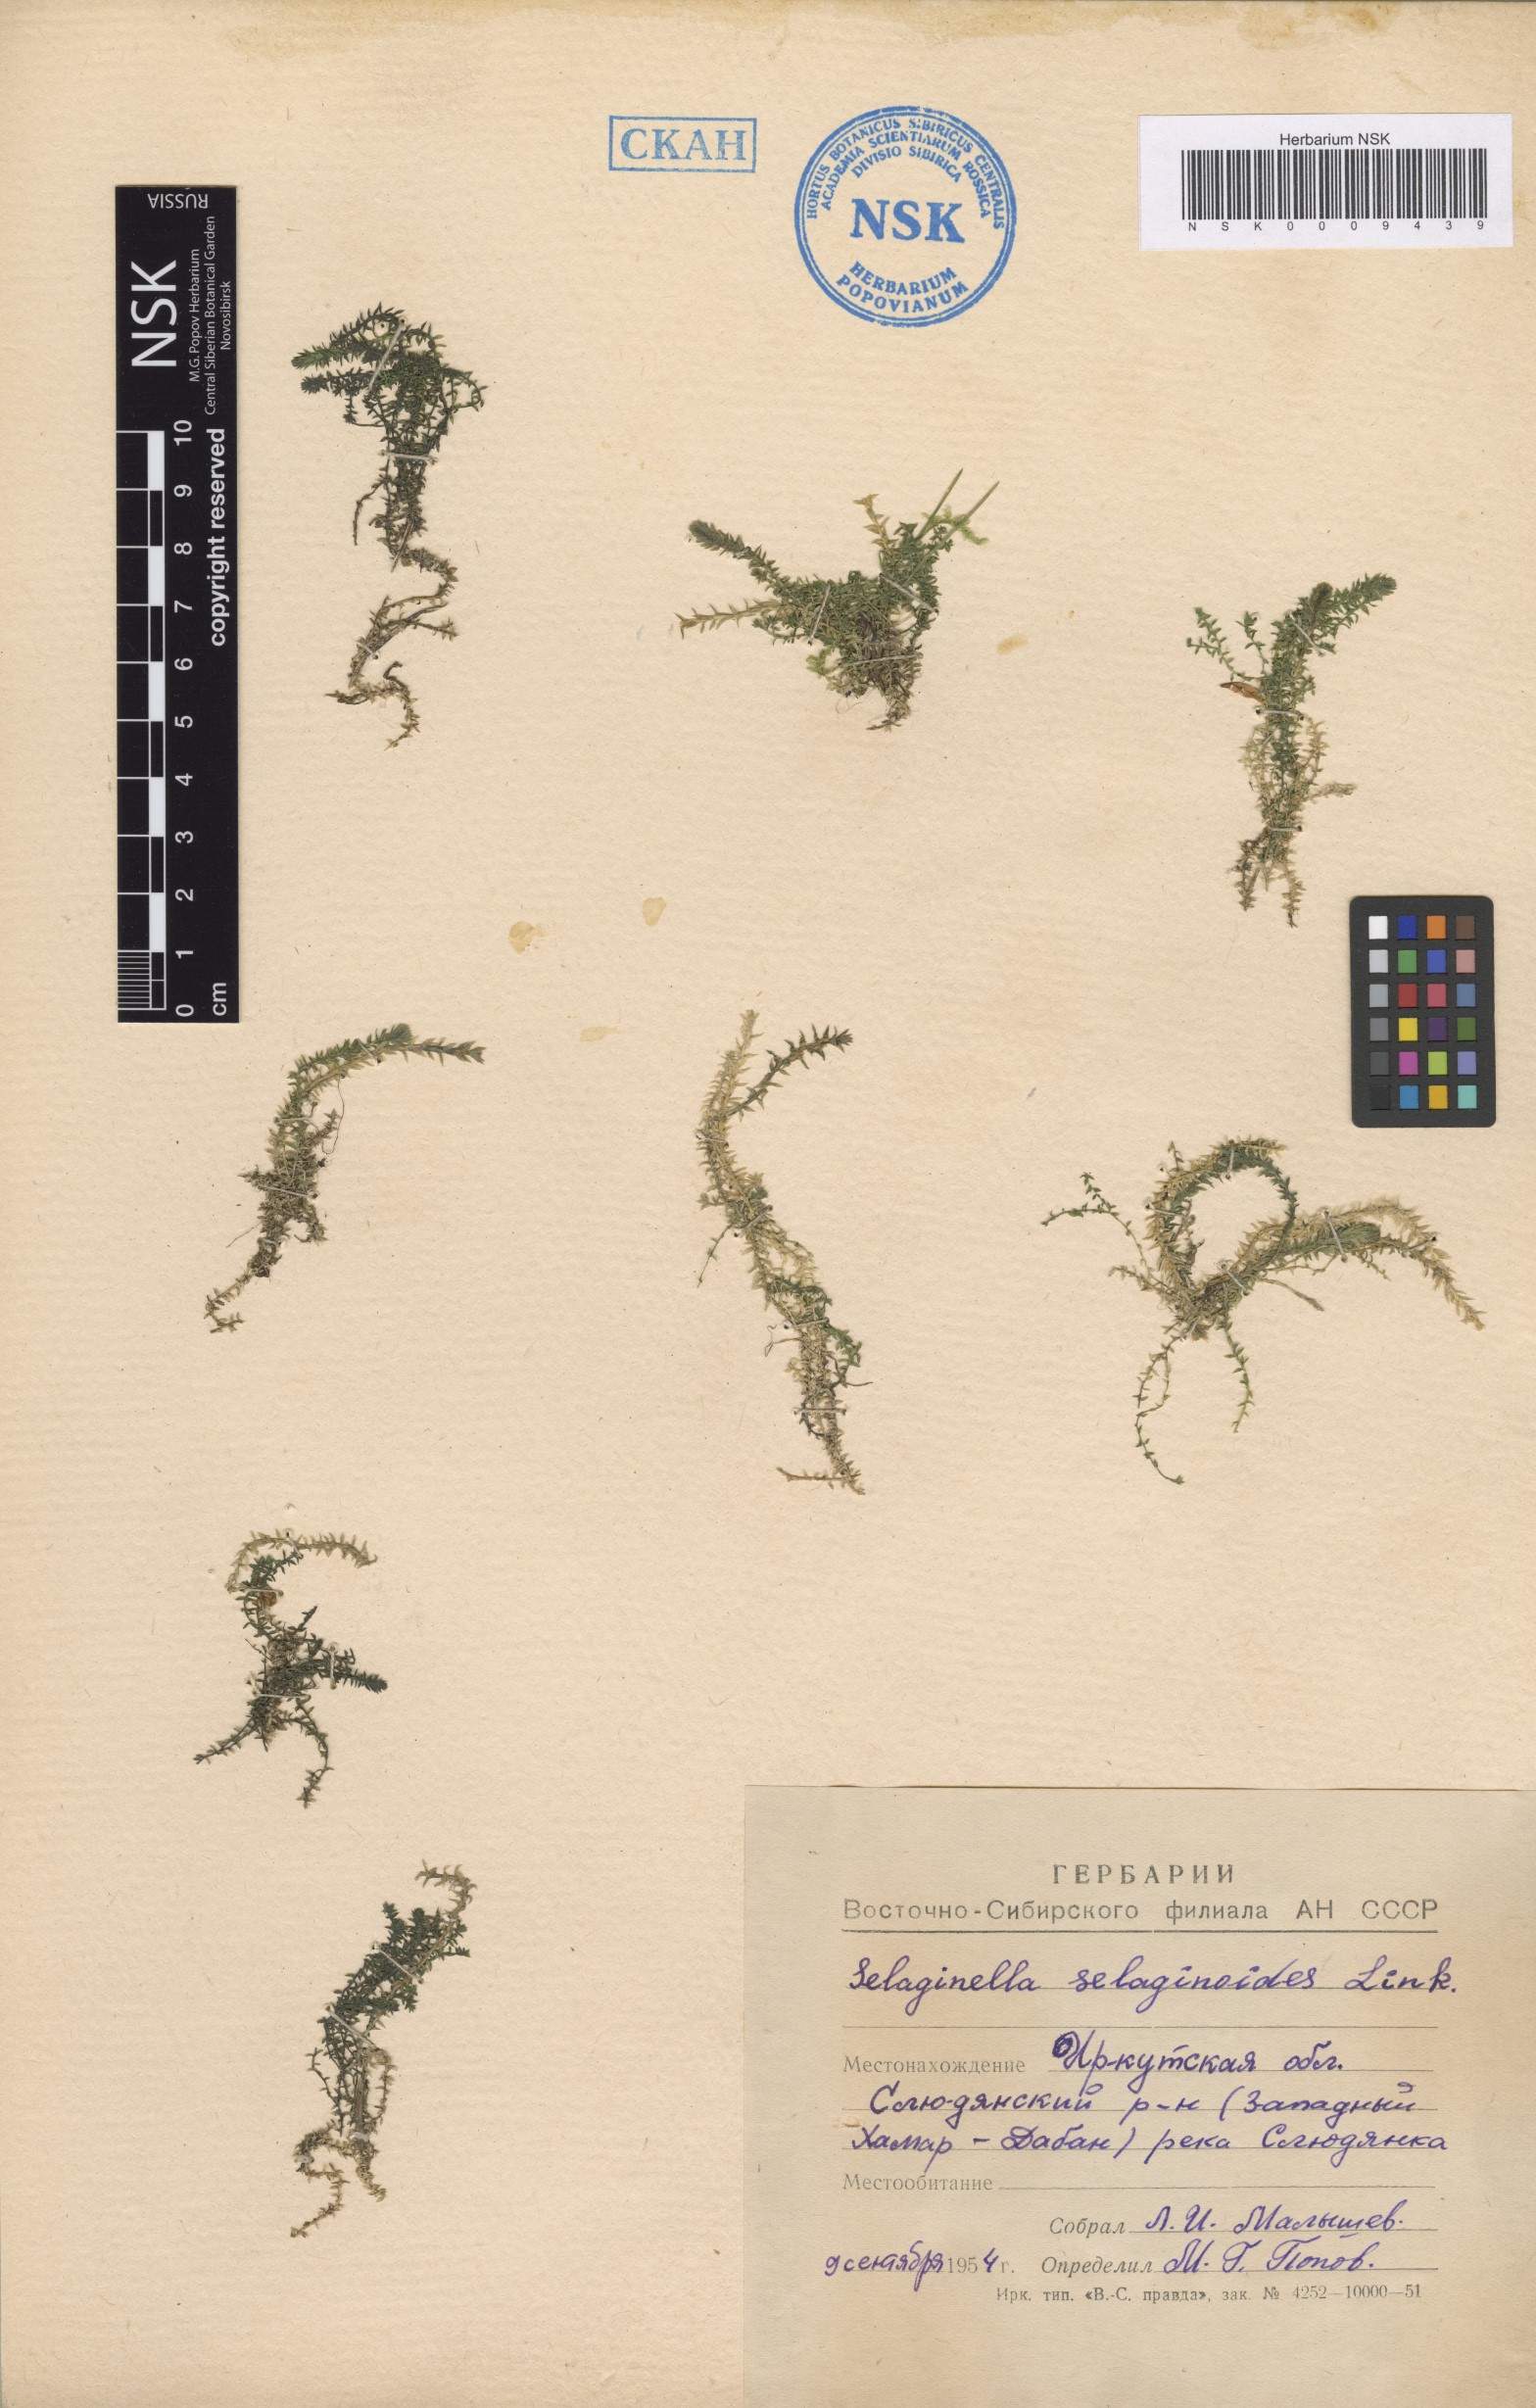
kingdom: Plantae
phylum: Tracheophyta
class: Lycopodiopsida
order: Selaginellales
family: Selaginellaceae
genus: Selaginella
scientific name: Selaginella selaginoides
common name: Prickly mountain-moss
